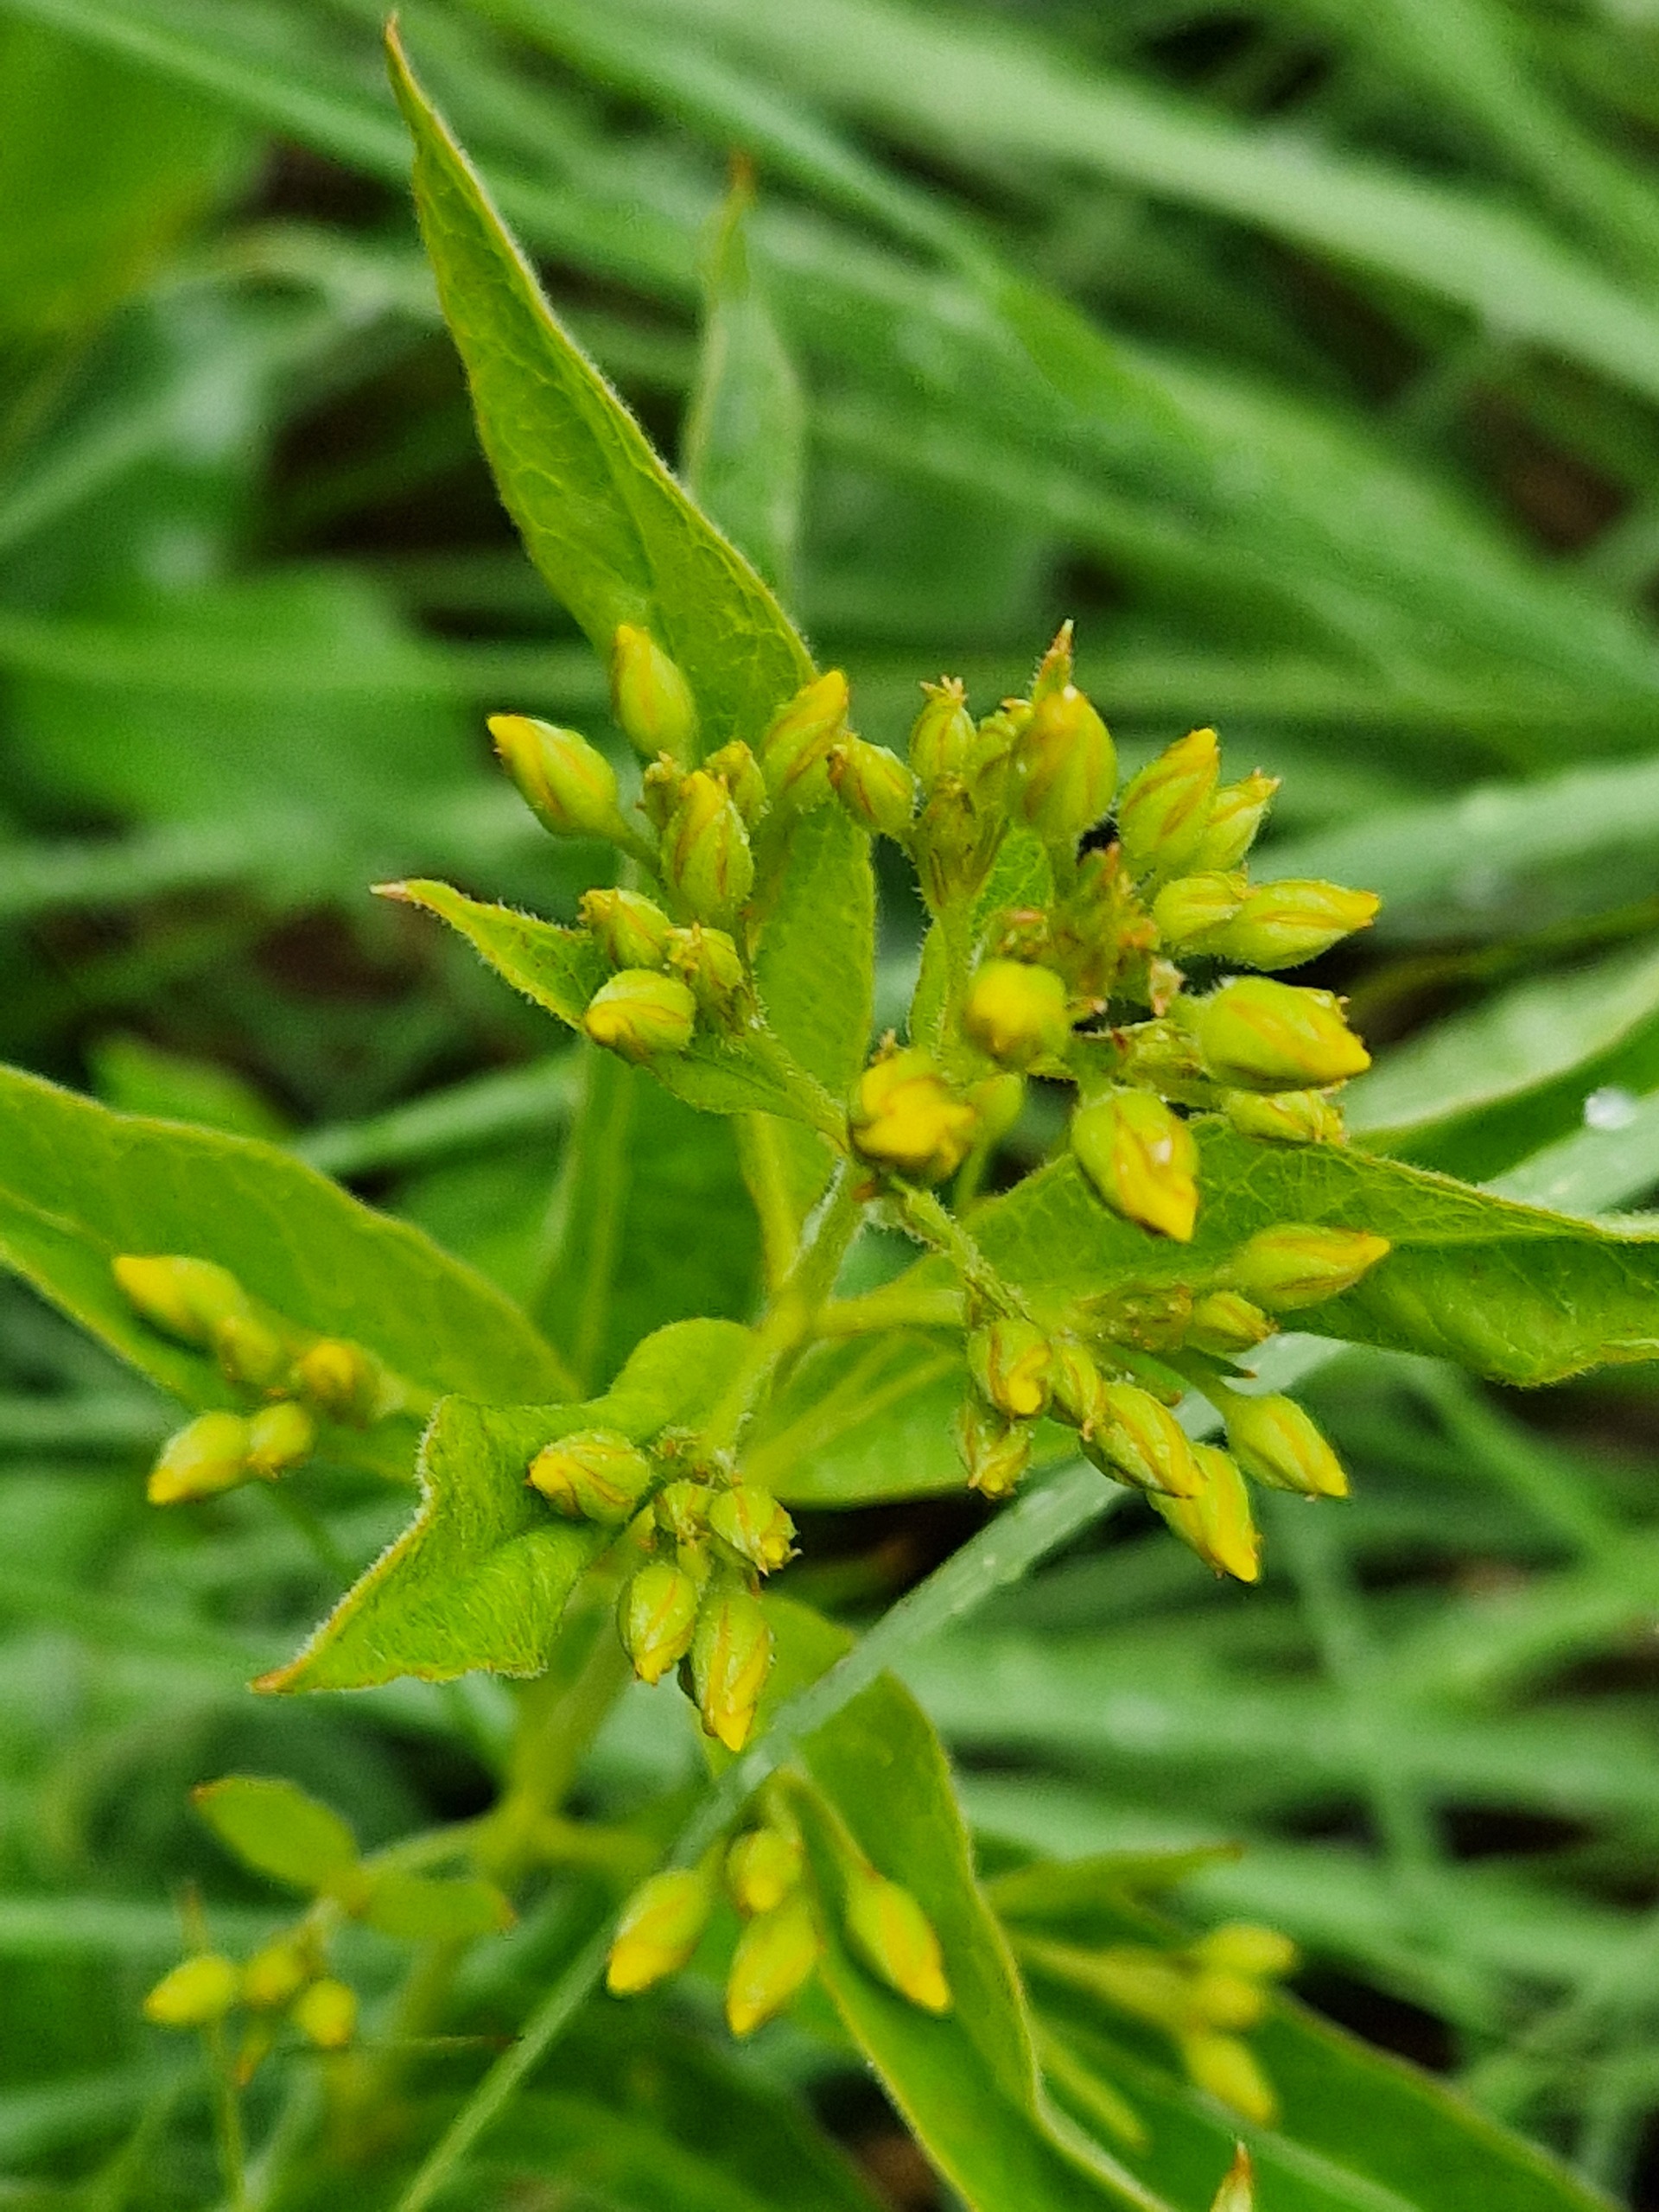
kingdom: Plantae
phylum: Tracheophyta
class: Magnoliopsida
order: Ericales
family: Primulaceae
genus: Lysimachia
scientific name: Lysimachia vulgaris
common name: Almindelig fredløs
